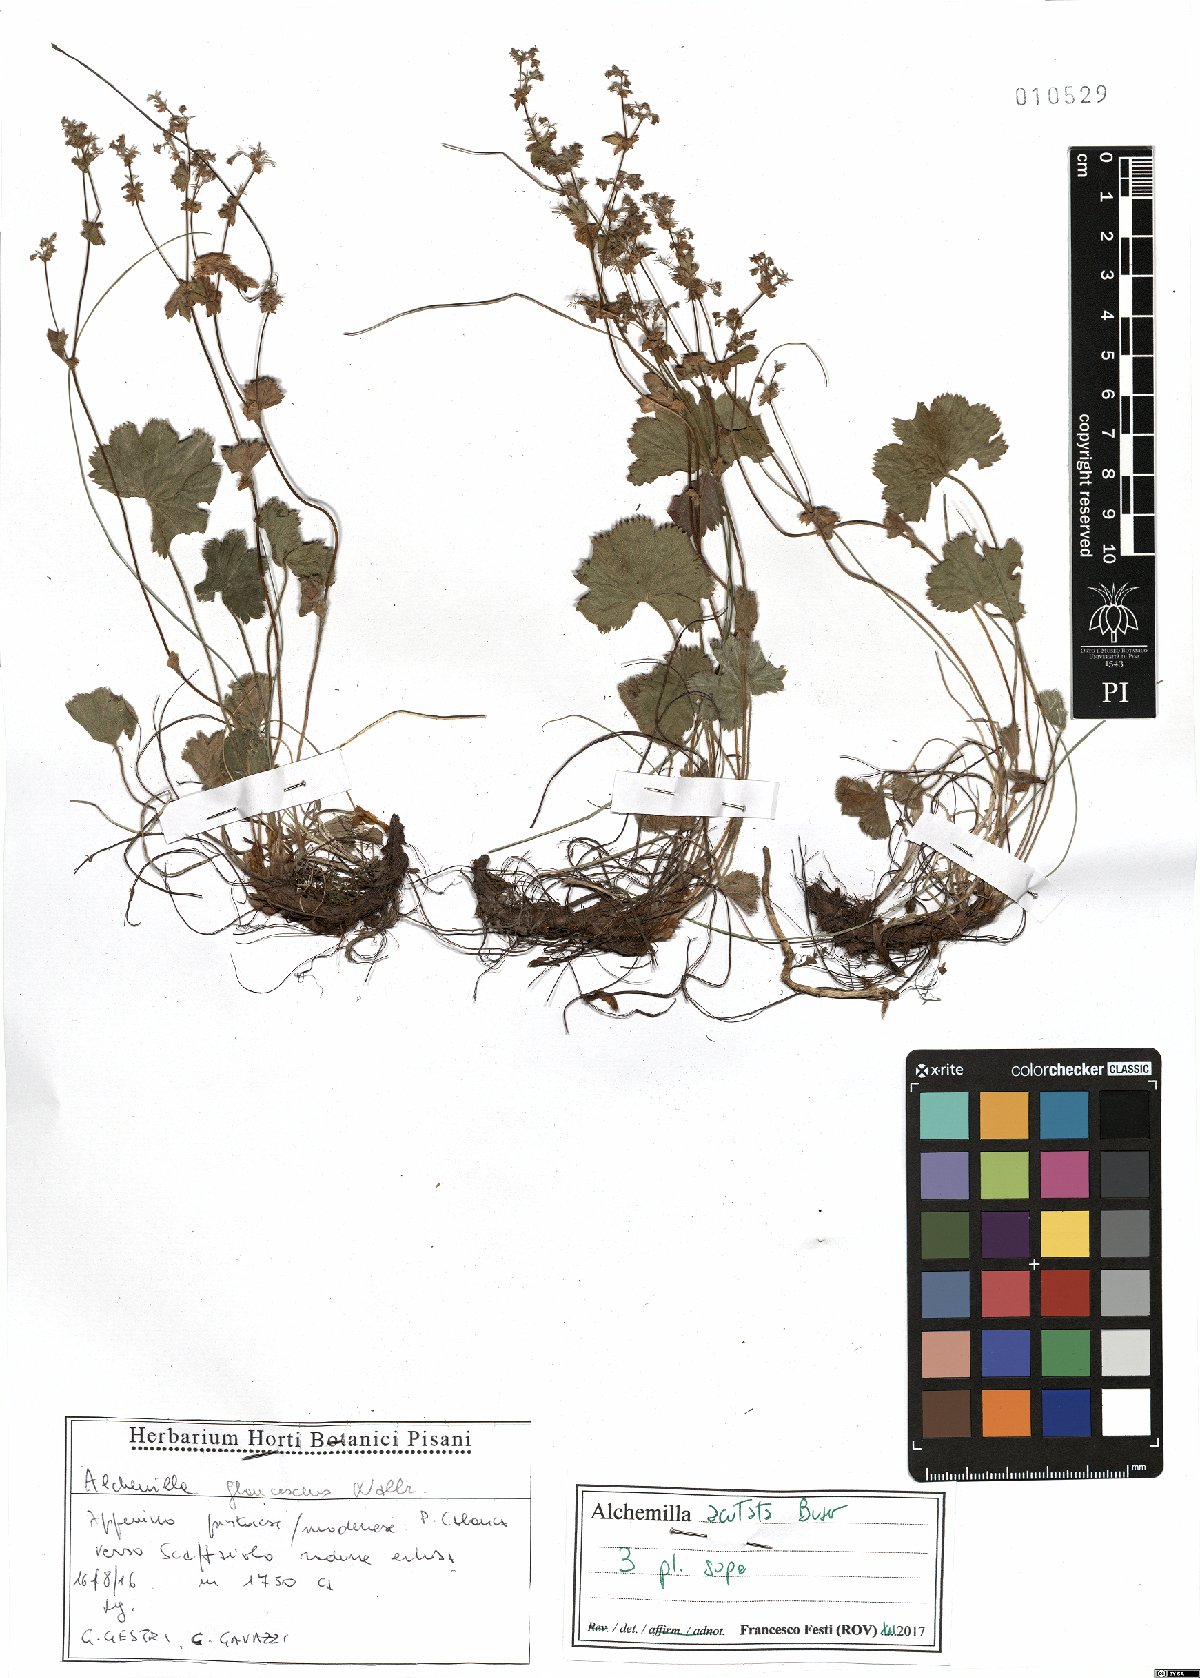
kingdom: Plantae
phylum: Tracheophyta
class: Magnoliopsida
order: Rosales
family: Rosaceae
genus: Alchemilla
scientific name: Alchemilla acutata
